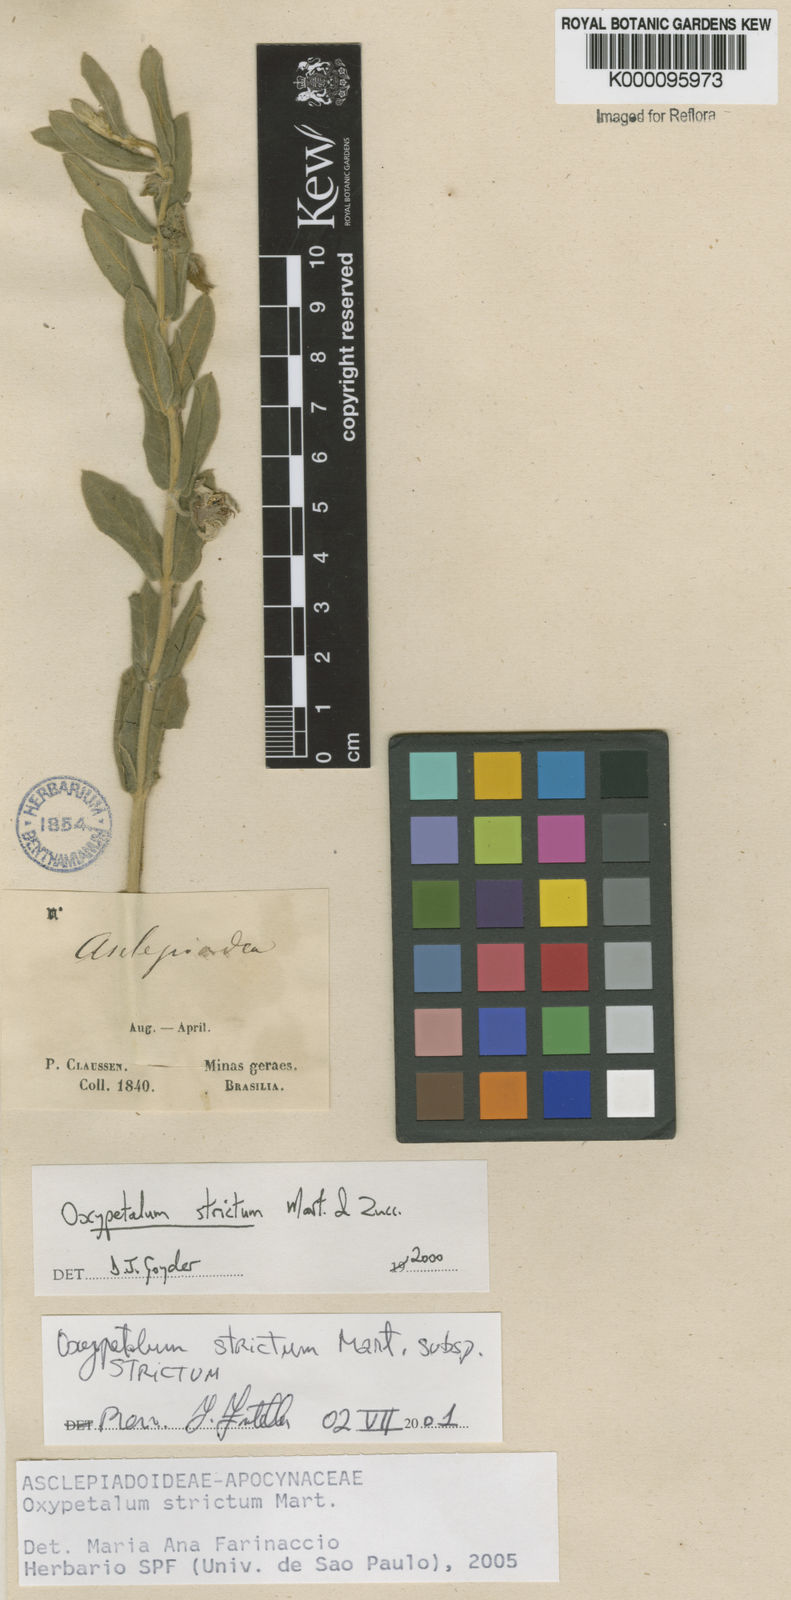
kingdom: Plantae
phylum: Tracheophyta
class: Magnoliopsida
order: Gentianales
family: Apocynaceae
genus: Oxypetalum
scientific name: Oxypetalum strictum
